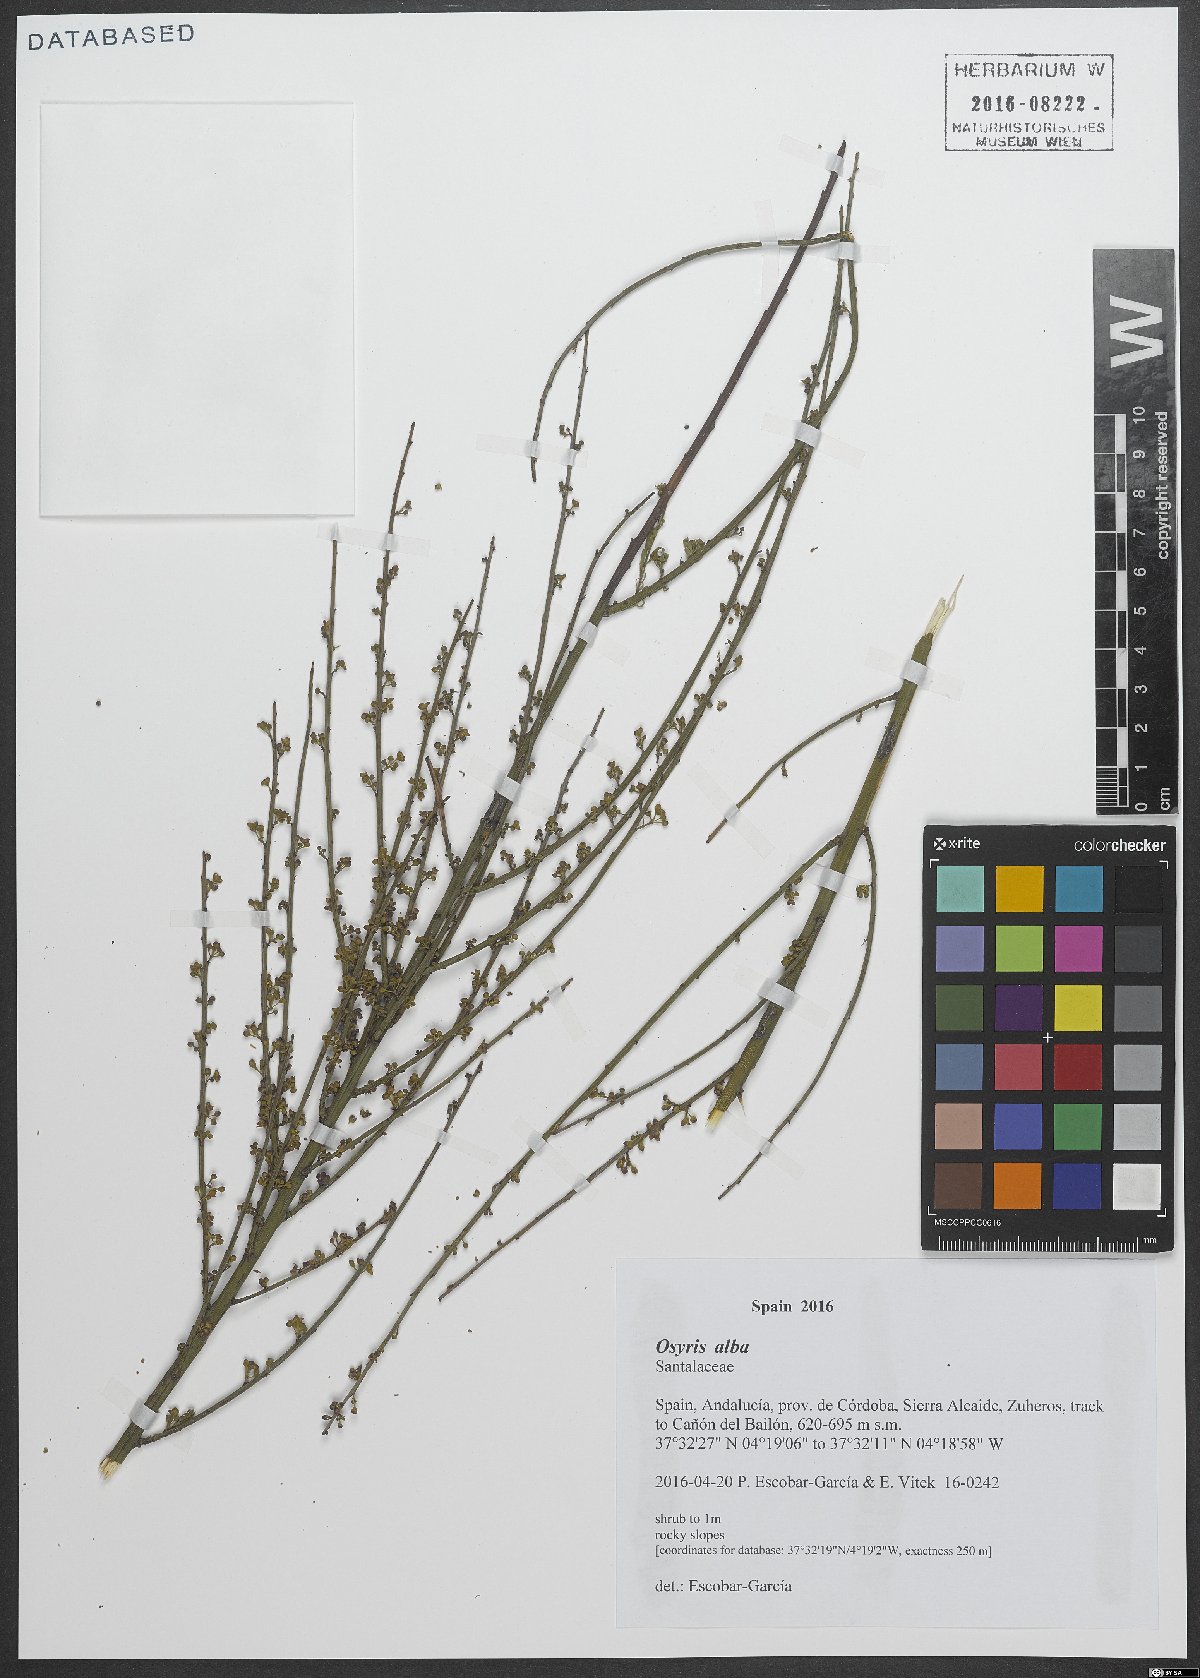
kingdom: Plantae
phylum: Tracheophyta
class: Magnoliopsida
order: Santalales
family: Santalaceae
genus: Osyris
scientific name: Osyris alba
